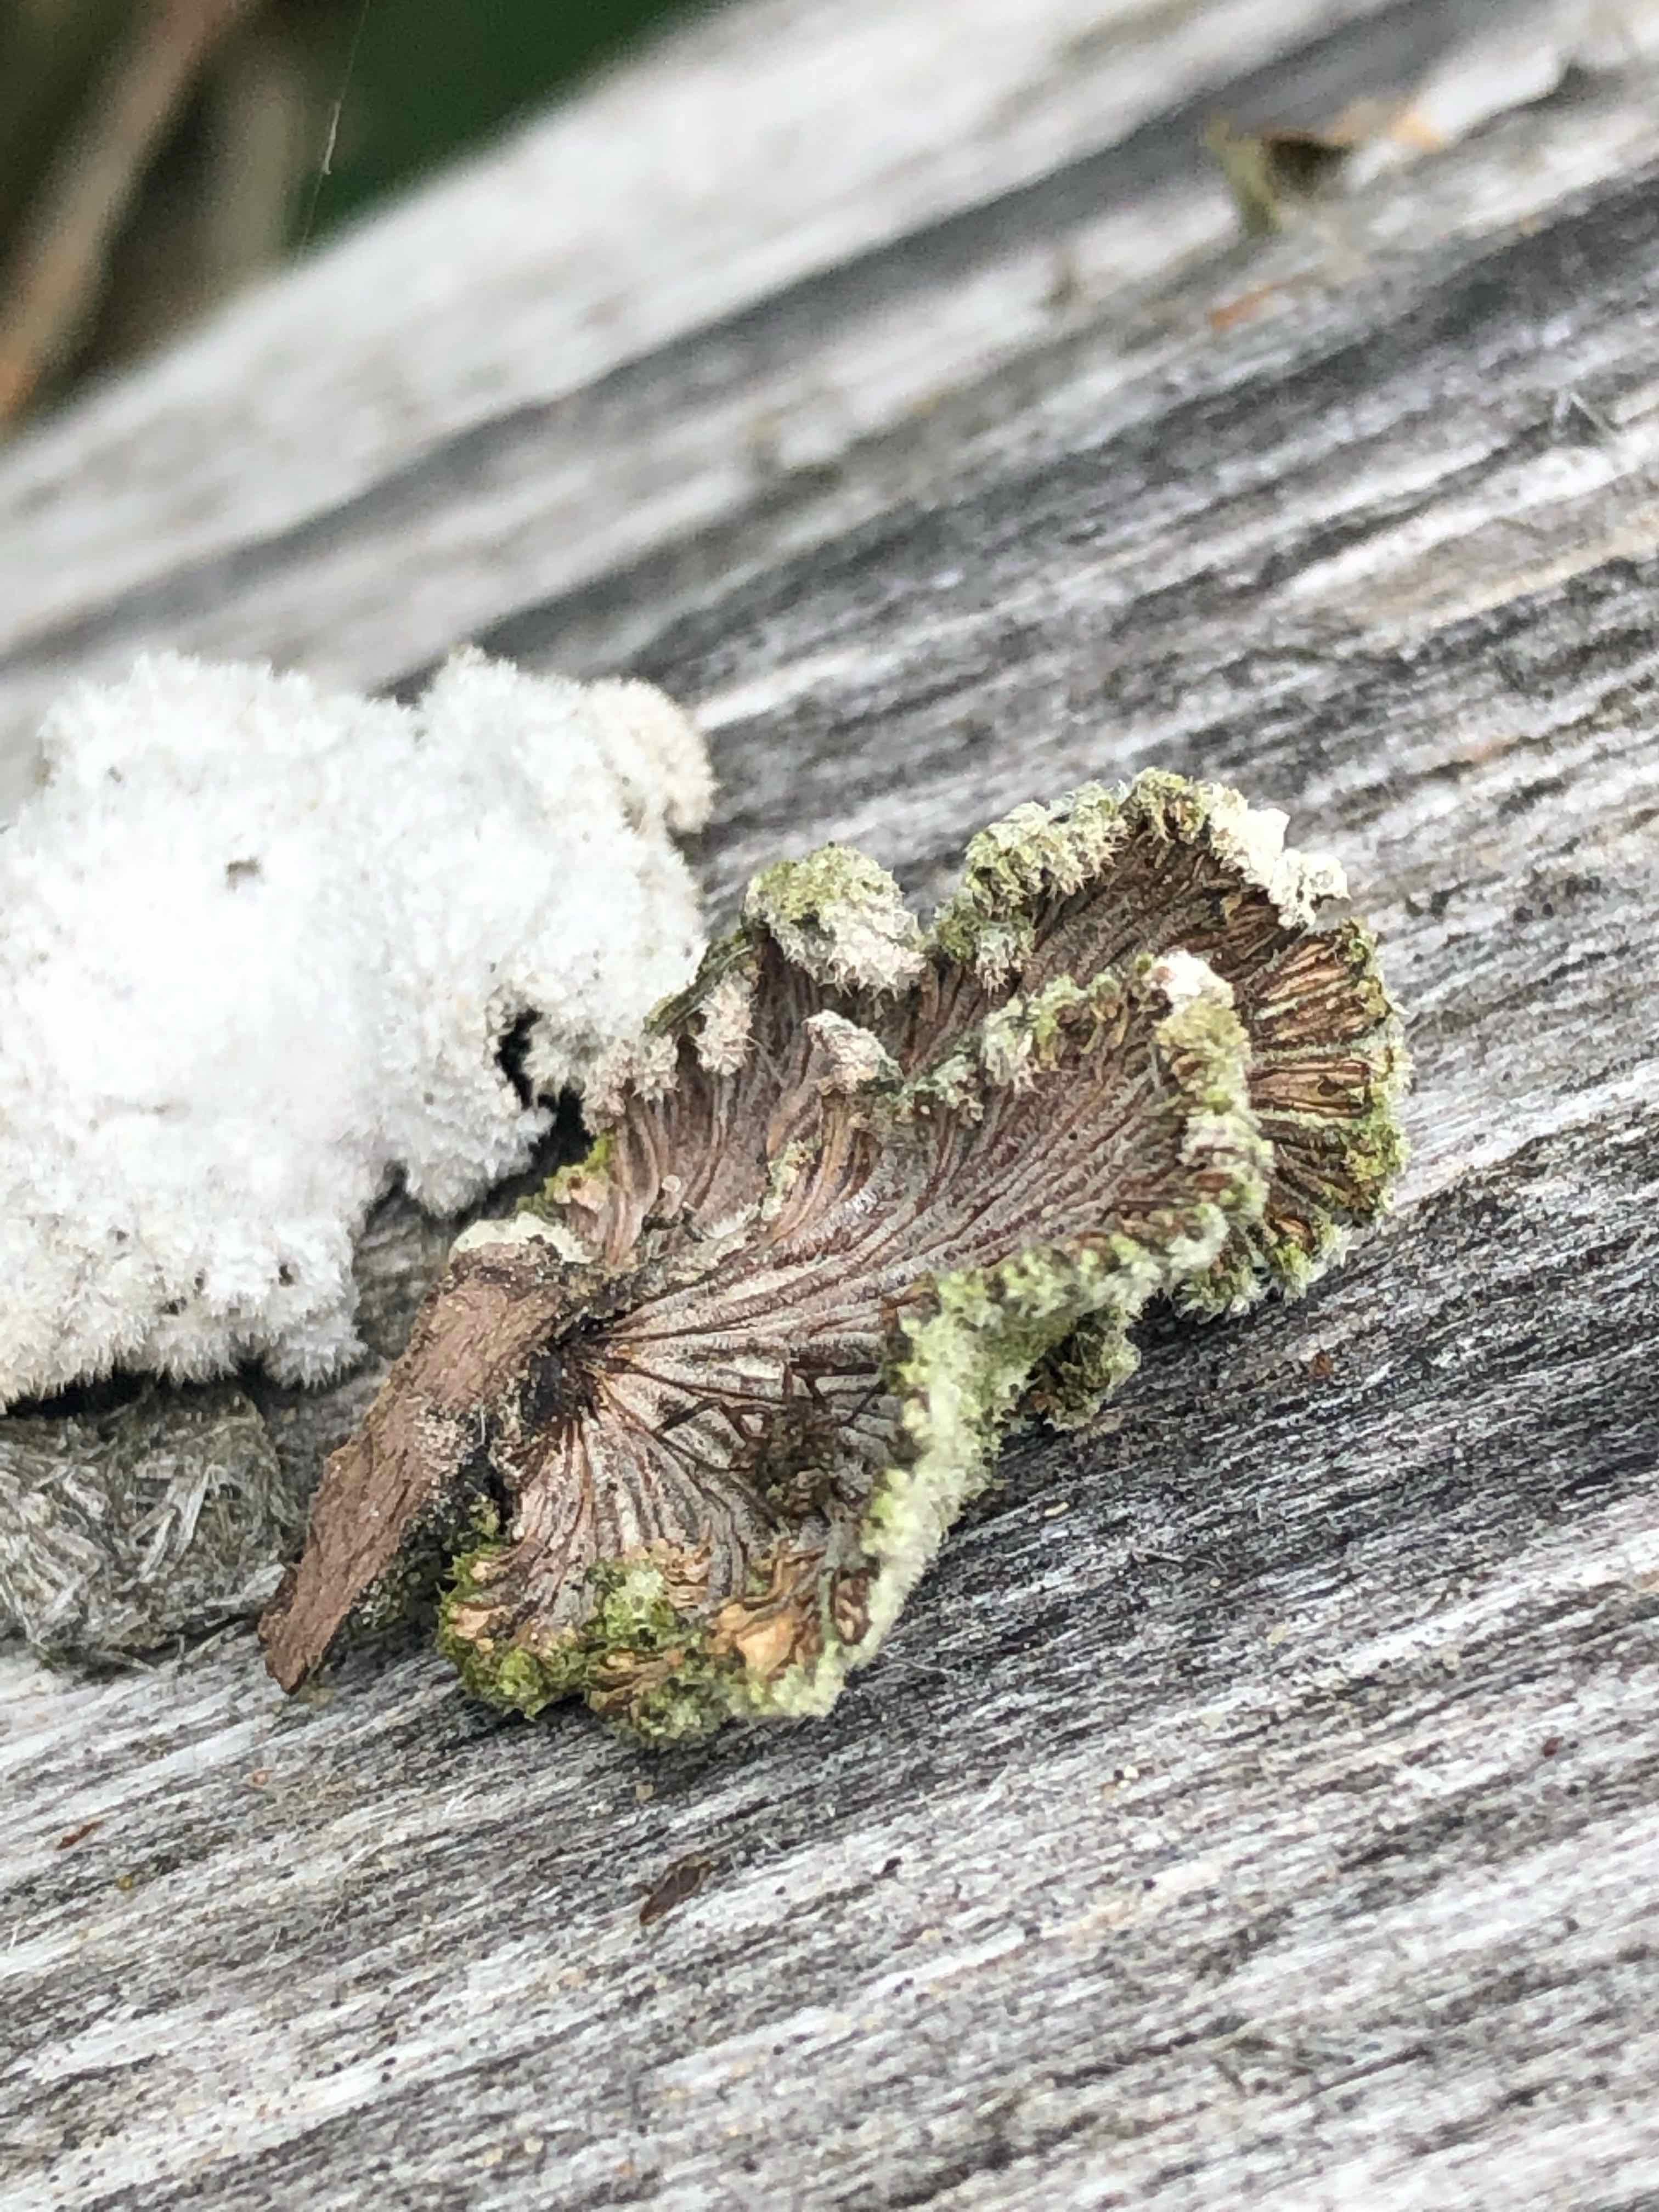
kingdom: Fungi
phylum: Basidiomycota
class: Agaricomycetes
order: Agaricales
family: Schizophyllaceae
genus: Schizophyllum
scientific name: Schizophyllum commune
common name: kløvblad
